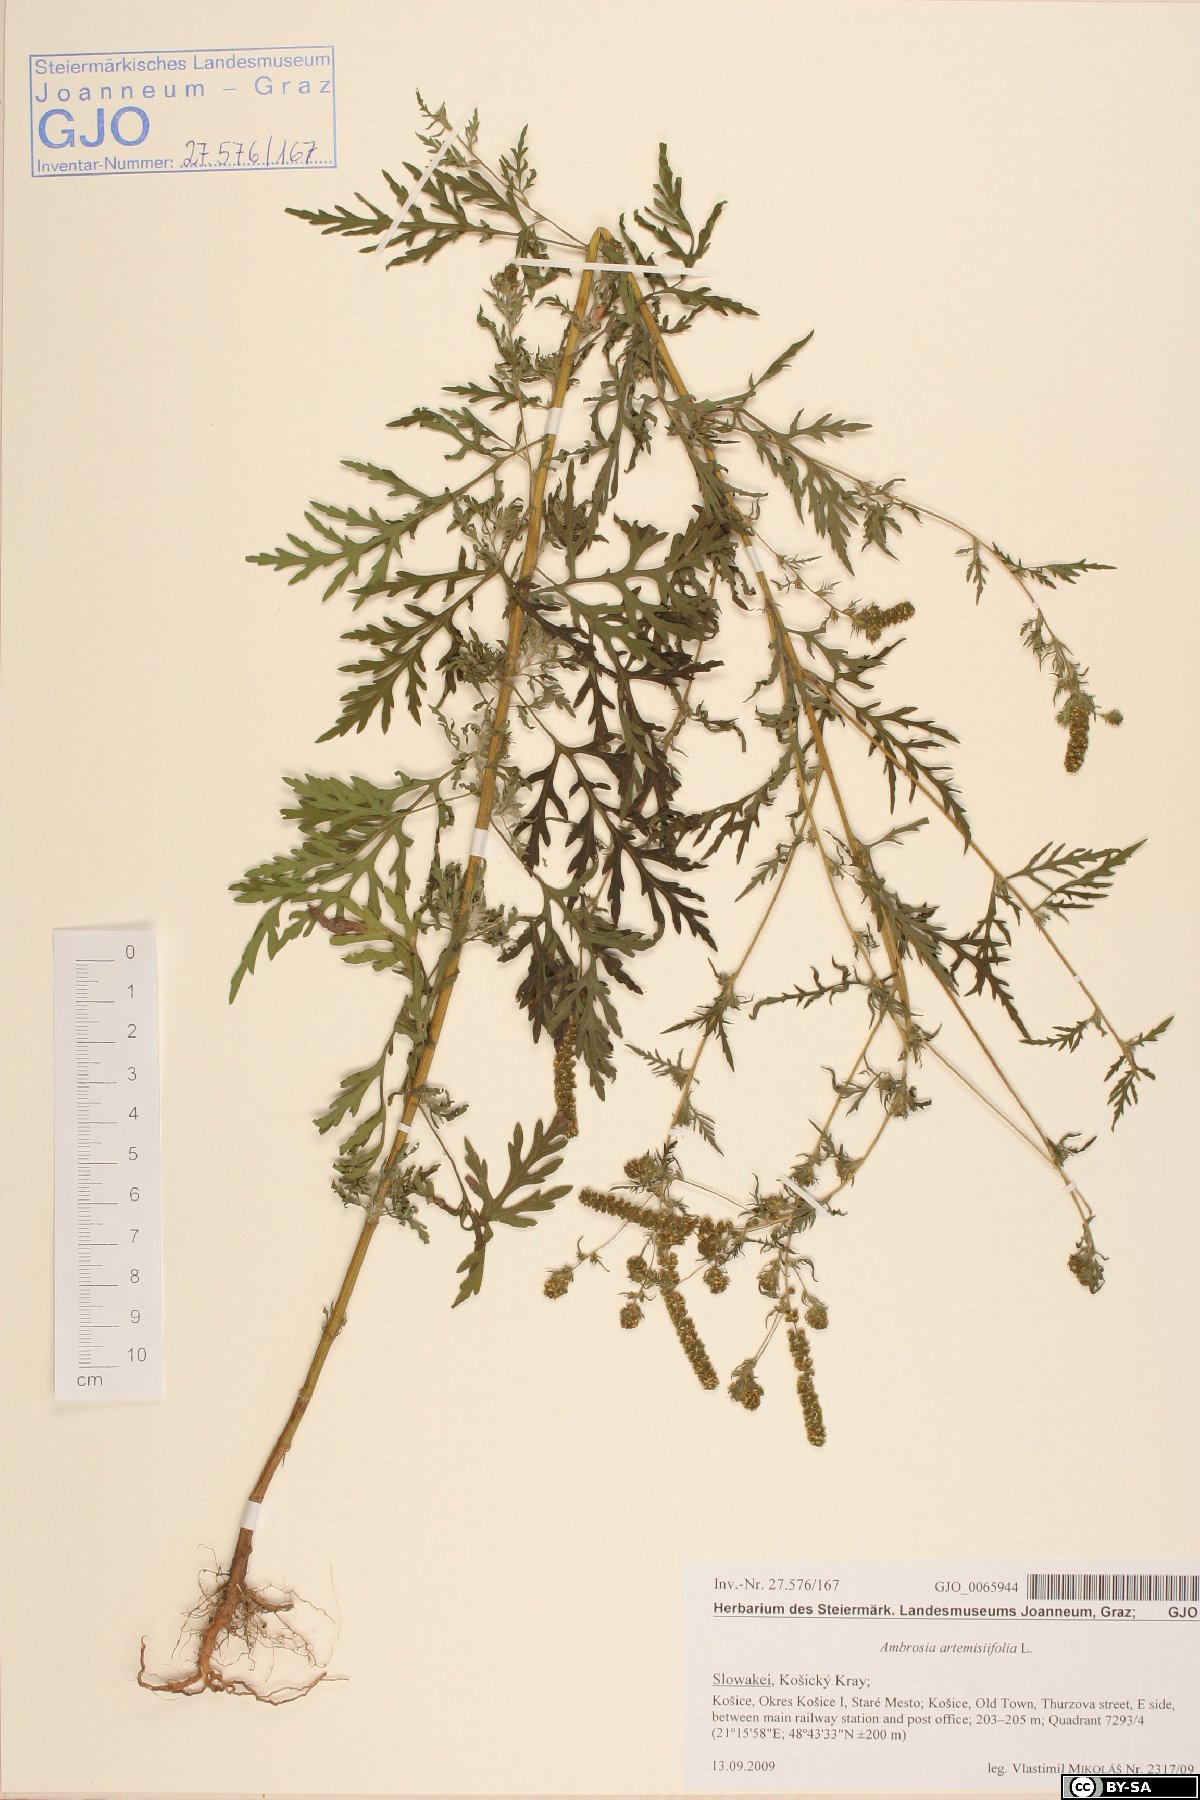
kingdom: Plantae
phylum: Tracheophyta
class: Magnoliopsida
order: Asterales
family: Asteraceae
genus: Ambrosia
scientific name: Ambrosia artemisiifolia
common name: Annual ragweed
